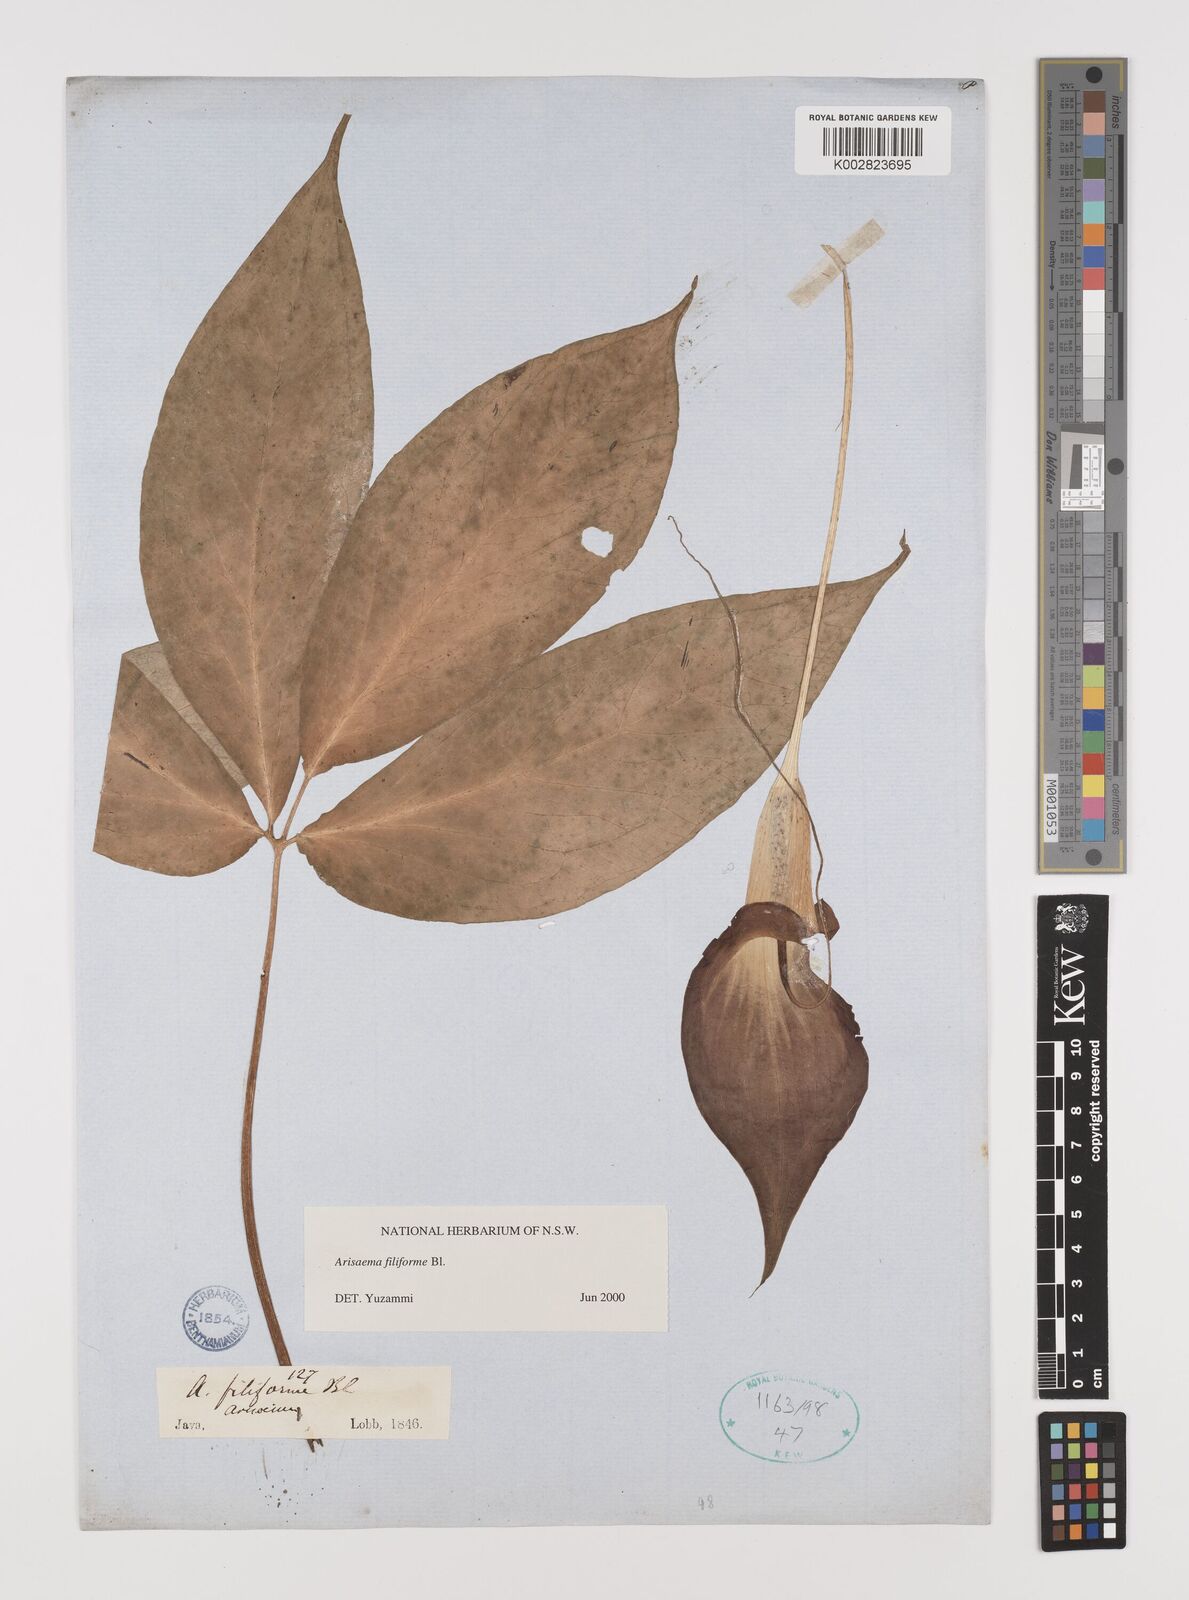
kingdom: Plantae
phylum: Tracheophyta
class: Liliopsida
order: Alismatales
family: Araceae
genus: Arisaema
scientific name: Arisaema filiforme
